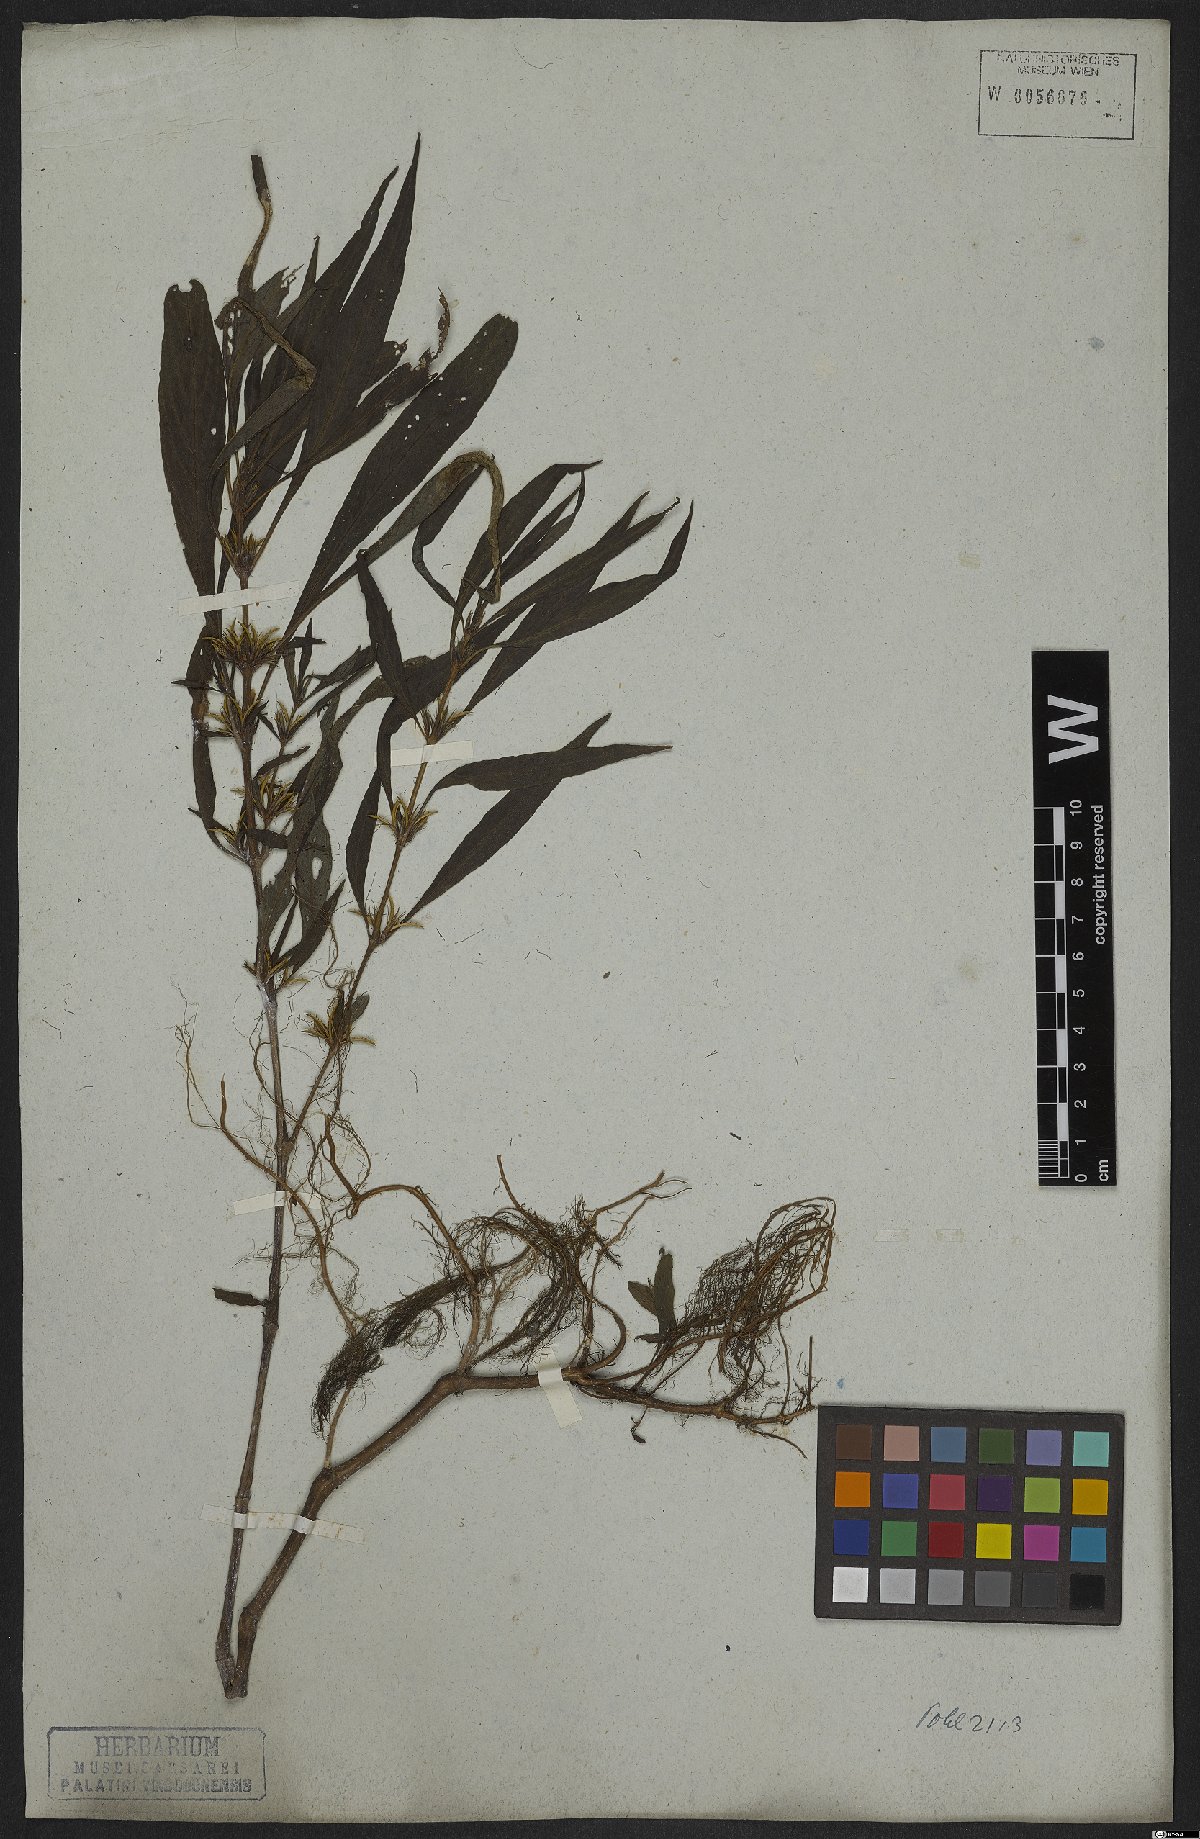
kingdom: Plantae
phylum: Tracheophyta
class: Magnoliopsida
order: Lamiales
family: Acanthaceae
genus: Hygrophila
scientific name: Hygrophila costata
